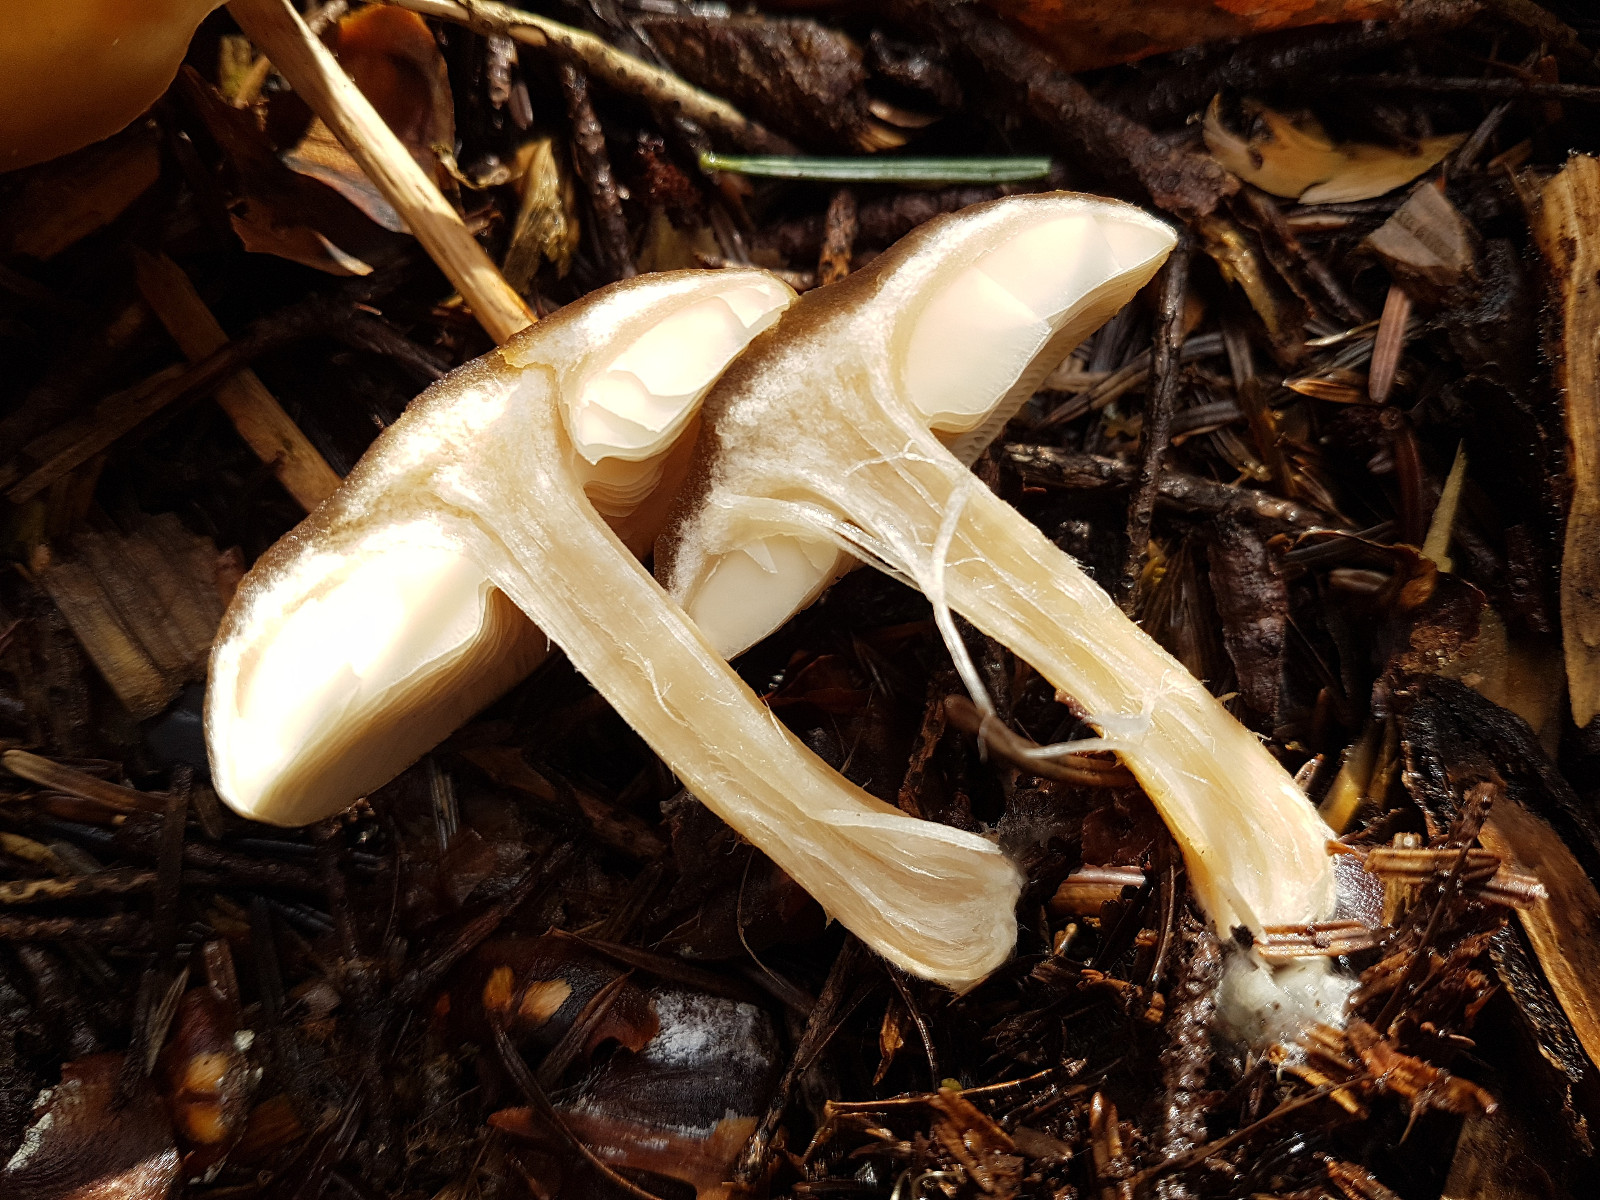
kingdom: Fungi
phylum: Basidiomycota
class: Agaricomycetes
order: Agaricales
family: Tricholomataceae
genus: Melanoleuca
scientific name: Melanoleuca cognata
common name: gyldengrå munkehat
